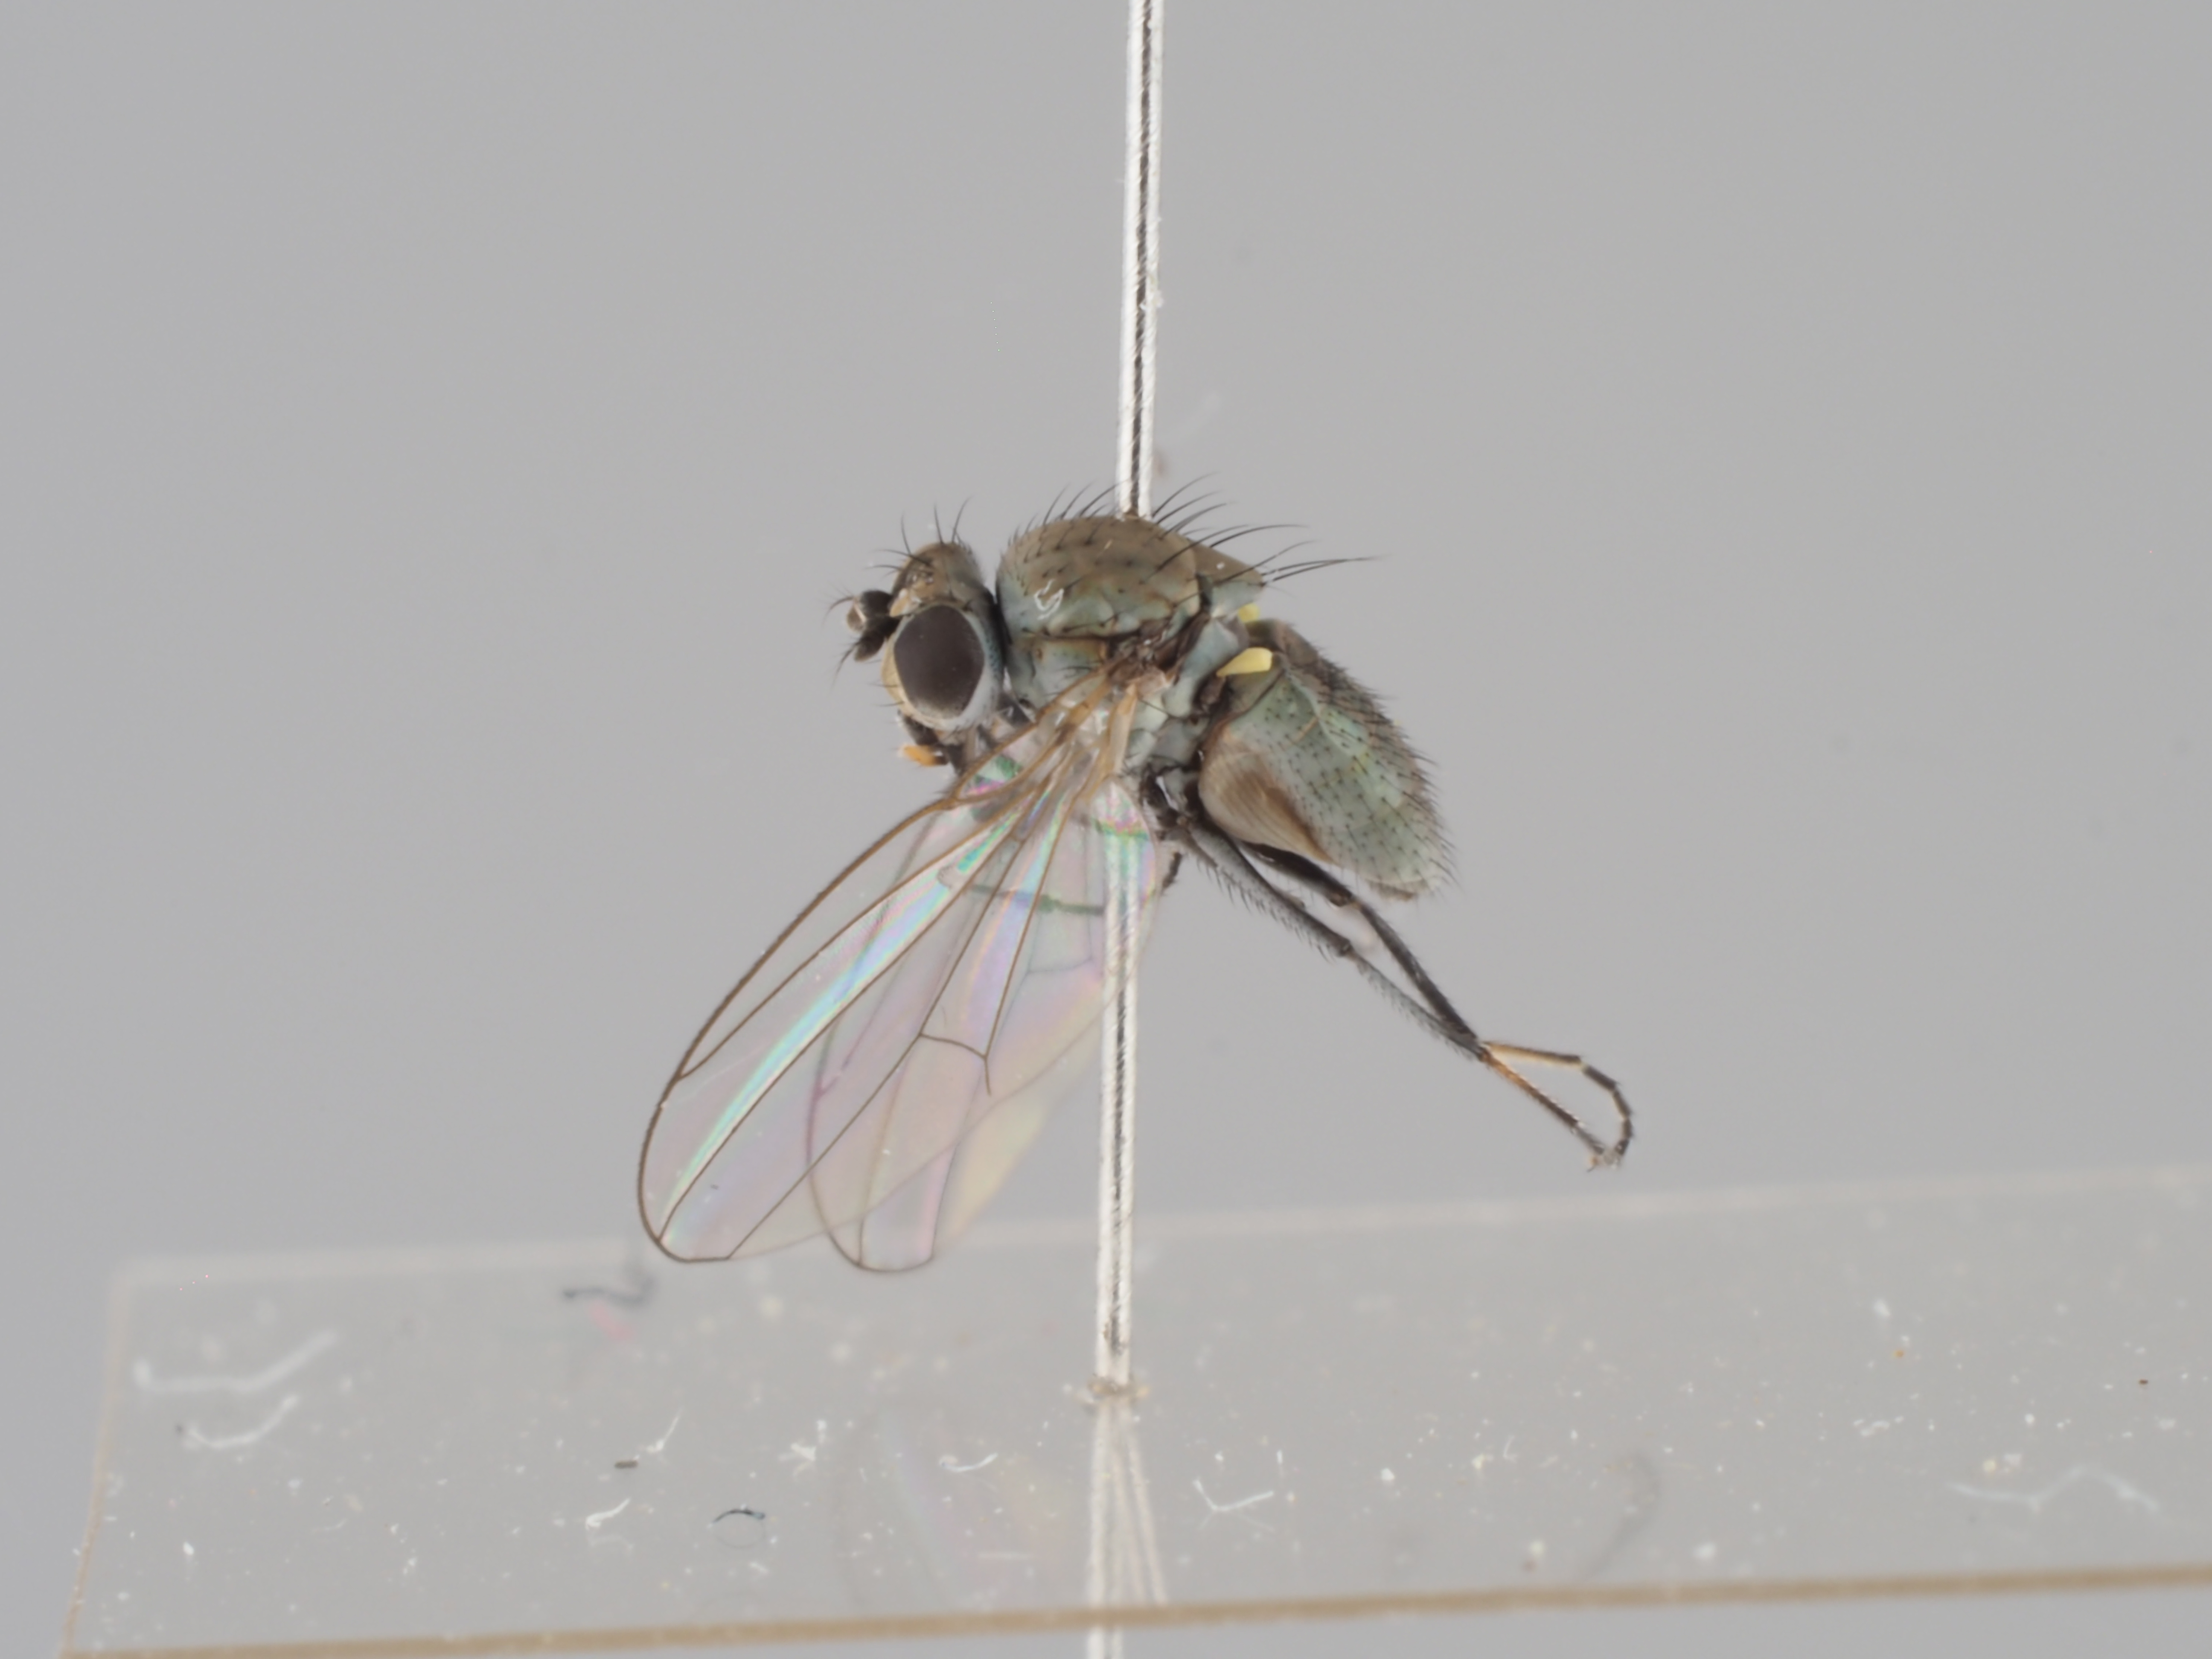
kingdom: Animalia
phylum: Arthropoda
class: Insecta
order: Diptera
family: Ephydridae
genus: Hydrellia
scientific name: Hydrellia griseola
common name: Shore fly
